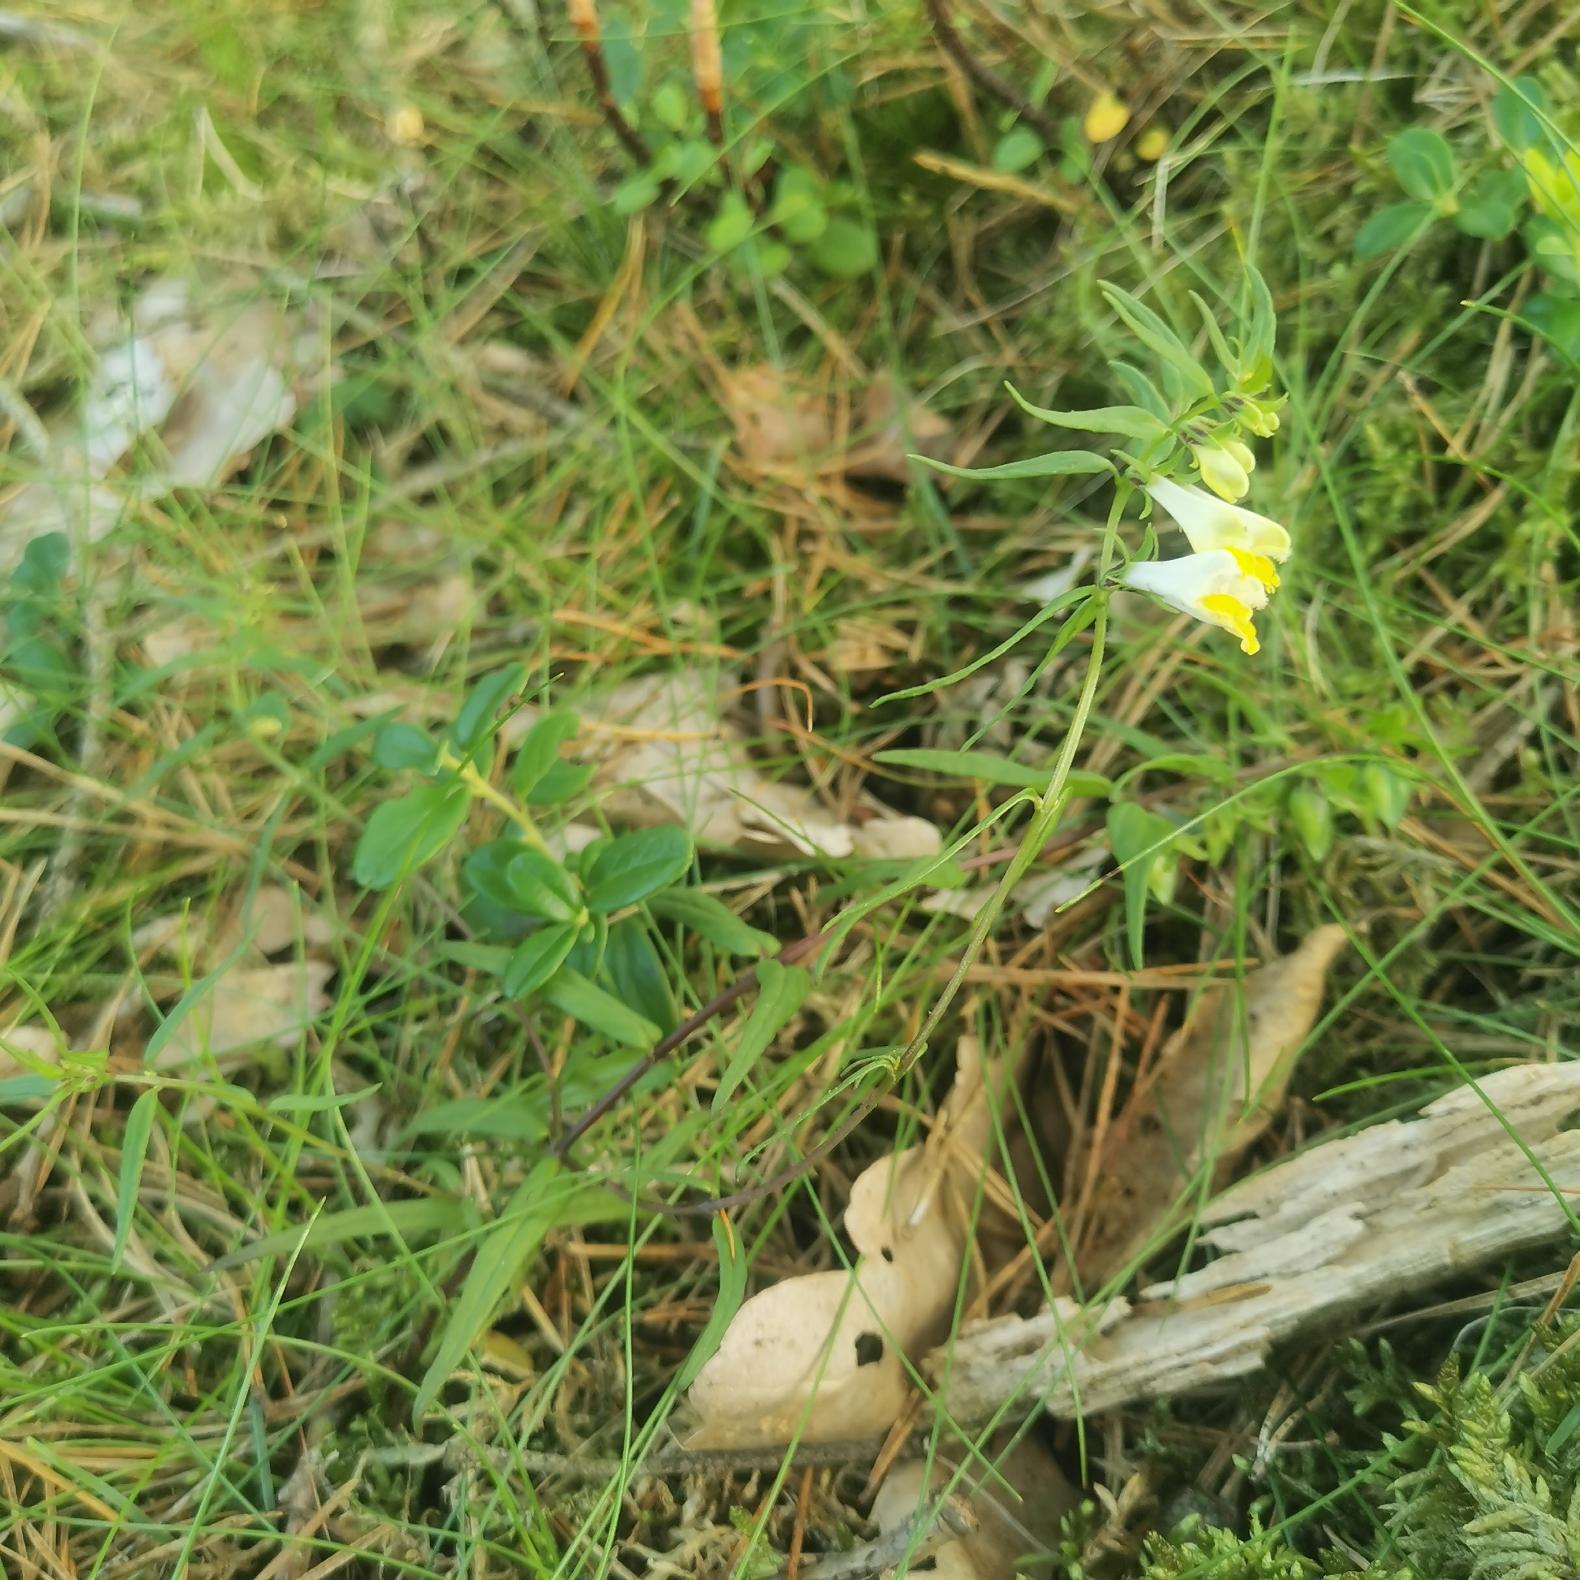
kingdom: Plantae
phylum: Tracheophyta
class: Magnoliopsida
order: Lamiales
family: Orobanchaceae
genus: Melampyrum
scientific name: Melampyrum pratense
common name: Almindelig kohvede
